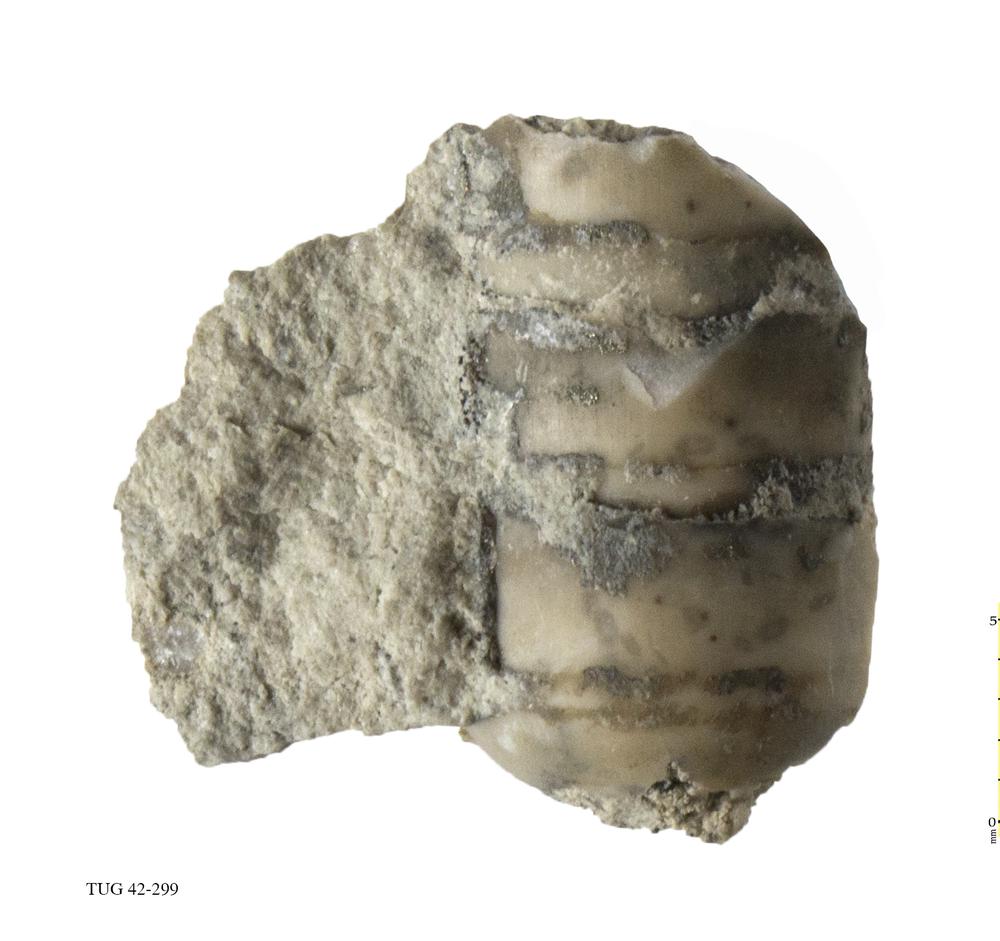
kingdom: Animalia
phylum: Mollusca
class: Cephalopoda
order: Orthocerida
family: Orthoceratidae
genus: Orthoceras
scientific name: Orthoceras regulare
